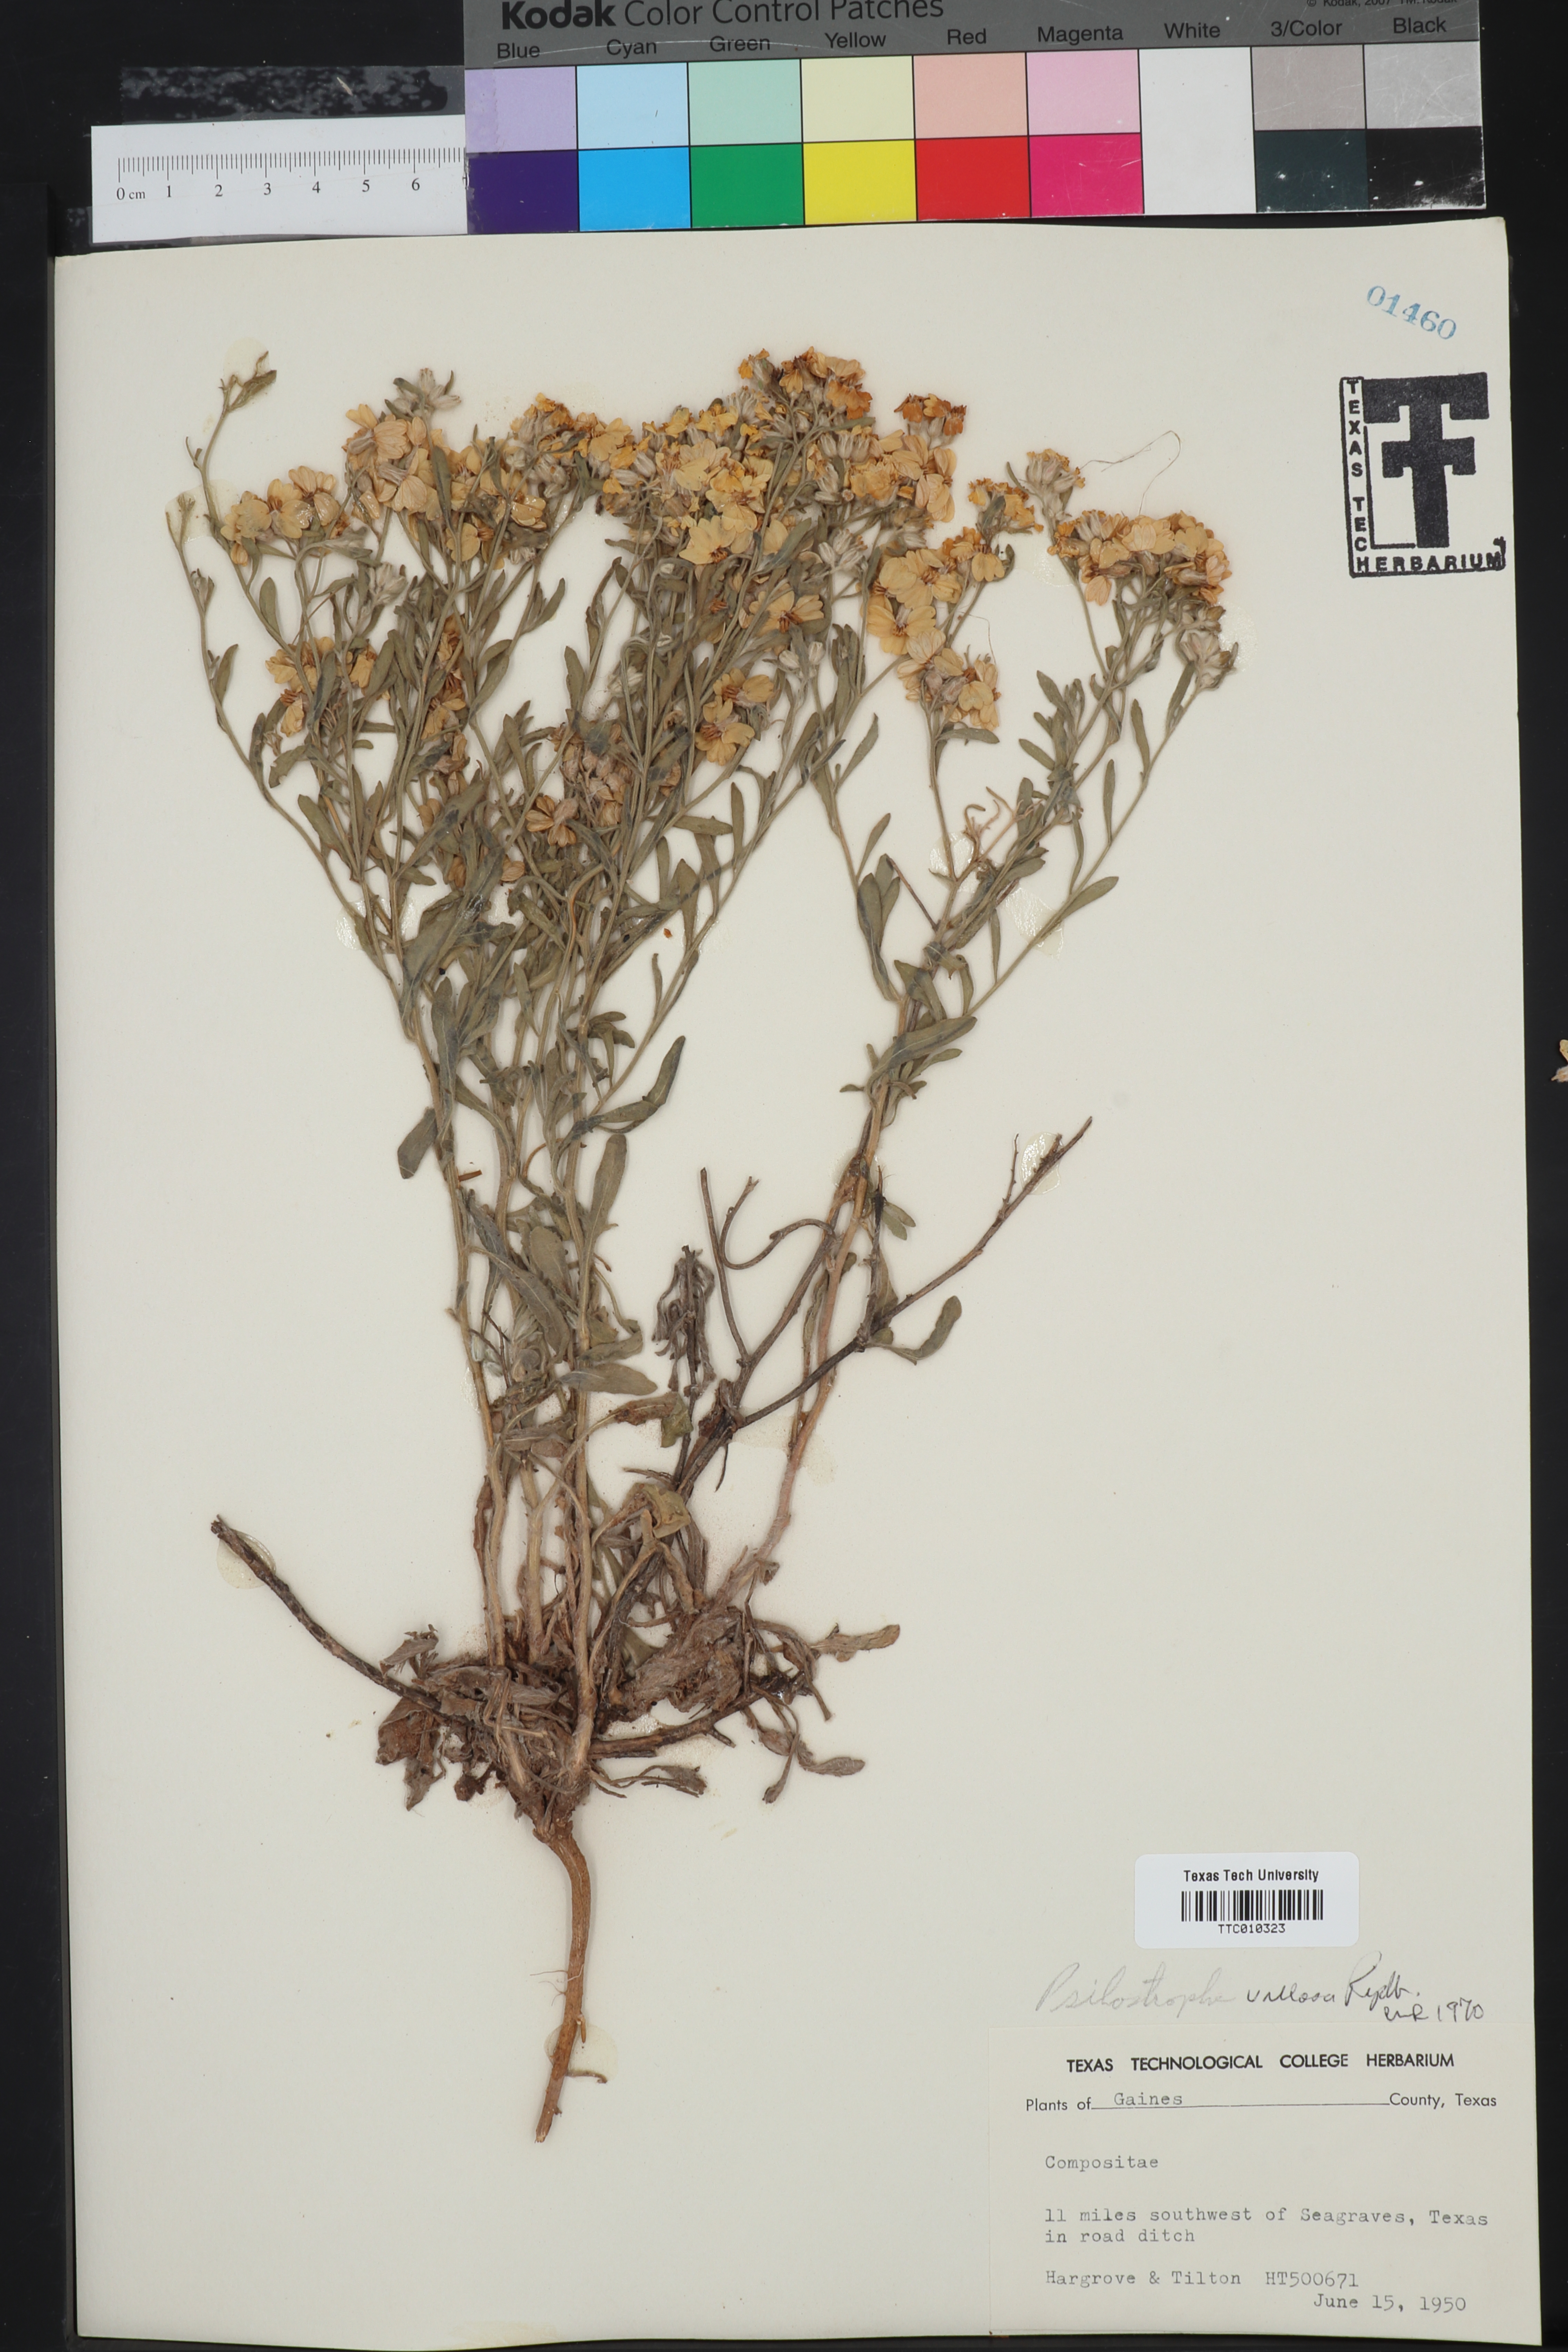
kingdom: Plantae
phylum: Tracheophyta
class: Magnoliopsida
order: Asterales
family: Asteraceae
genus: Psilostrophe
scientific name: Psilostrophe villosa
